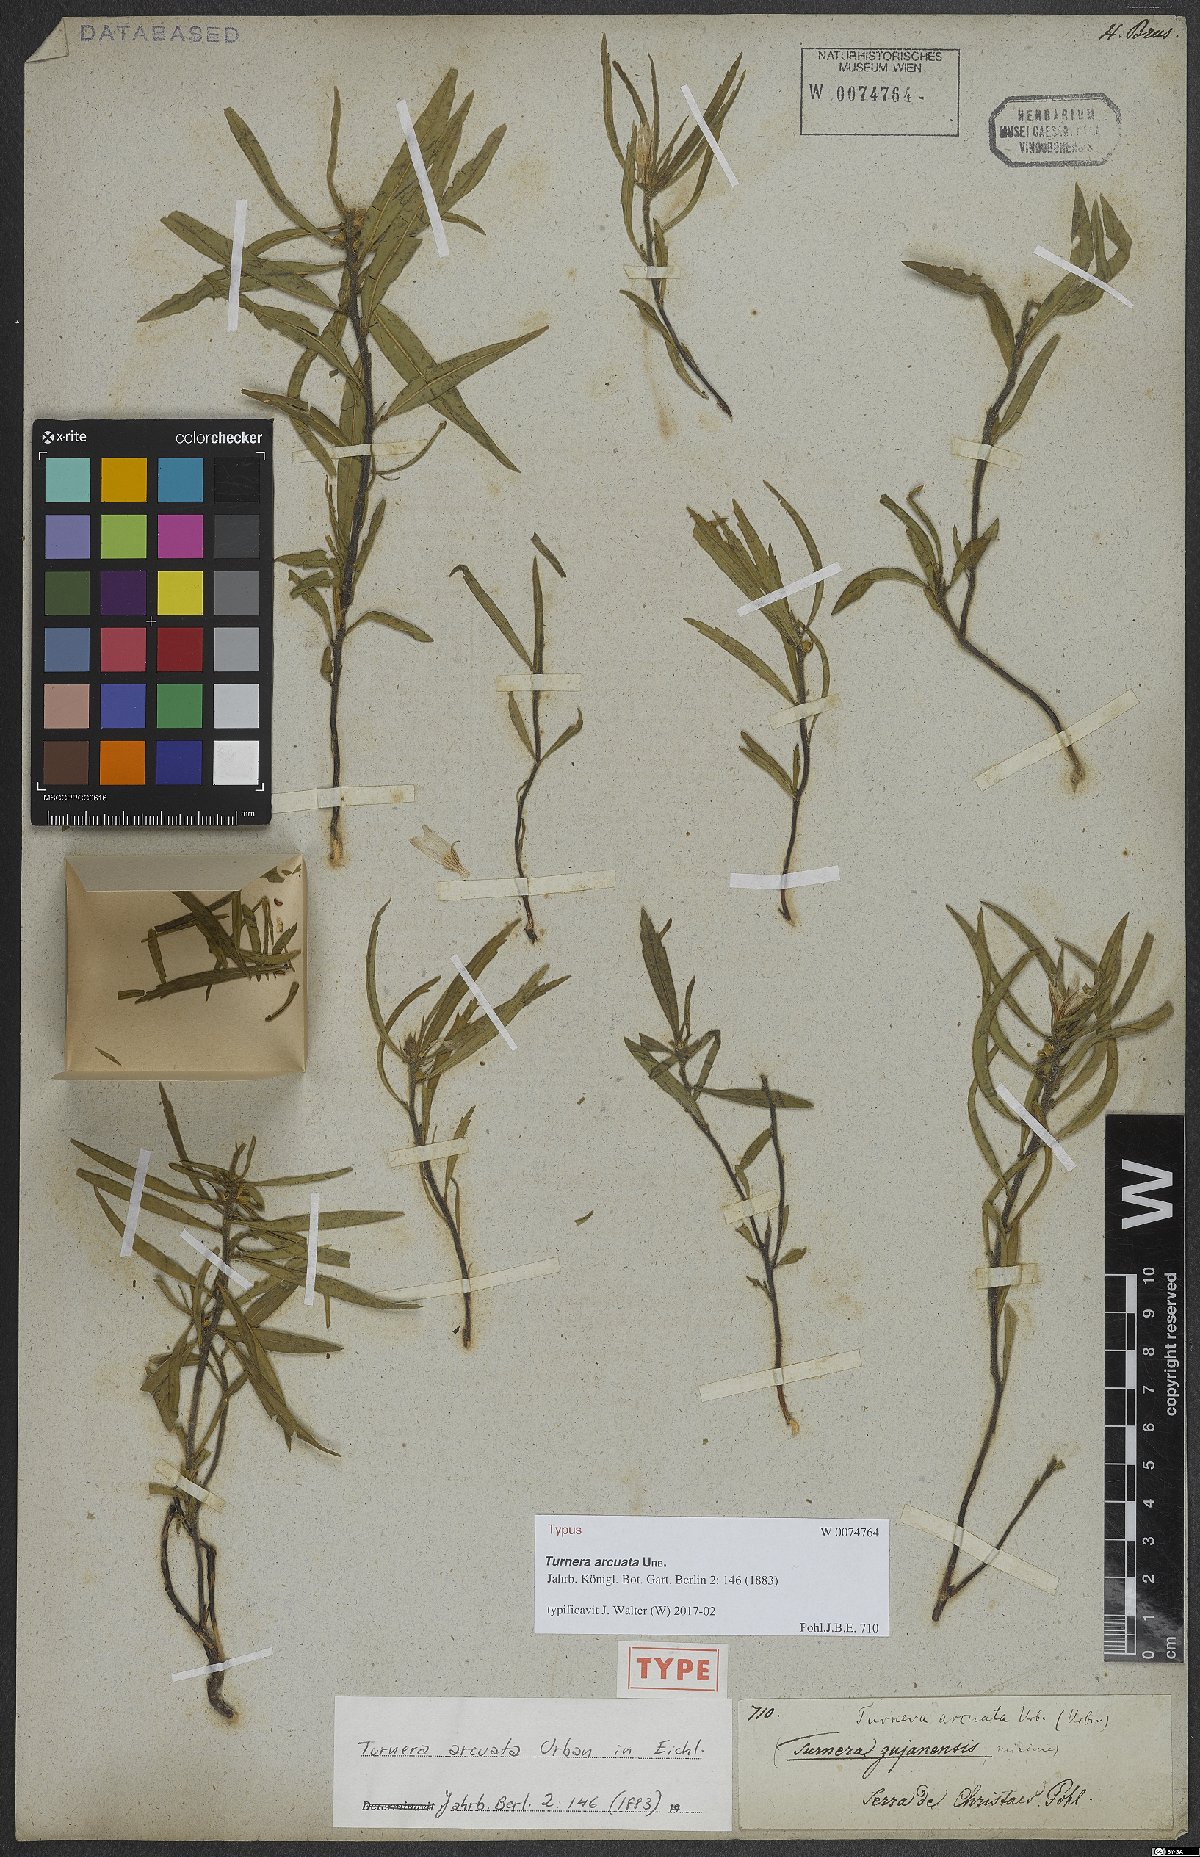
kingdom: Plantae
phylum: Tracheophyta
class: Magnoliopsida
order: Malpighiales
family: Turneraceae
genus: Turnera
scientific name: Turnera arcuata
